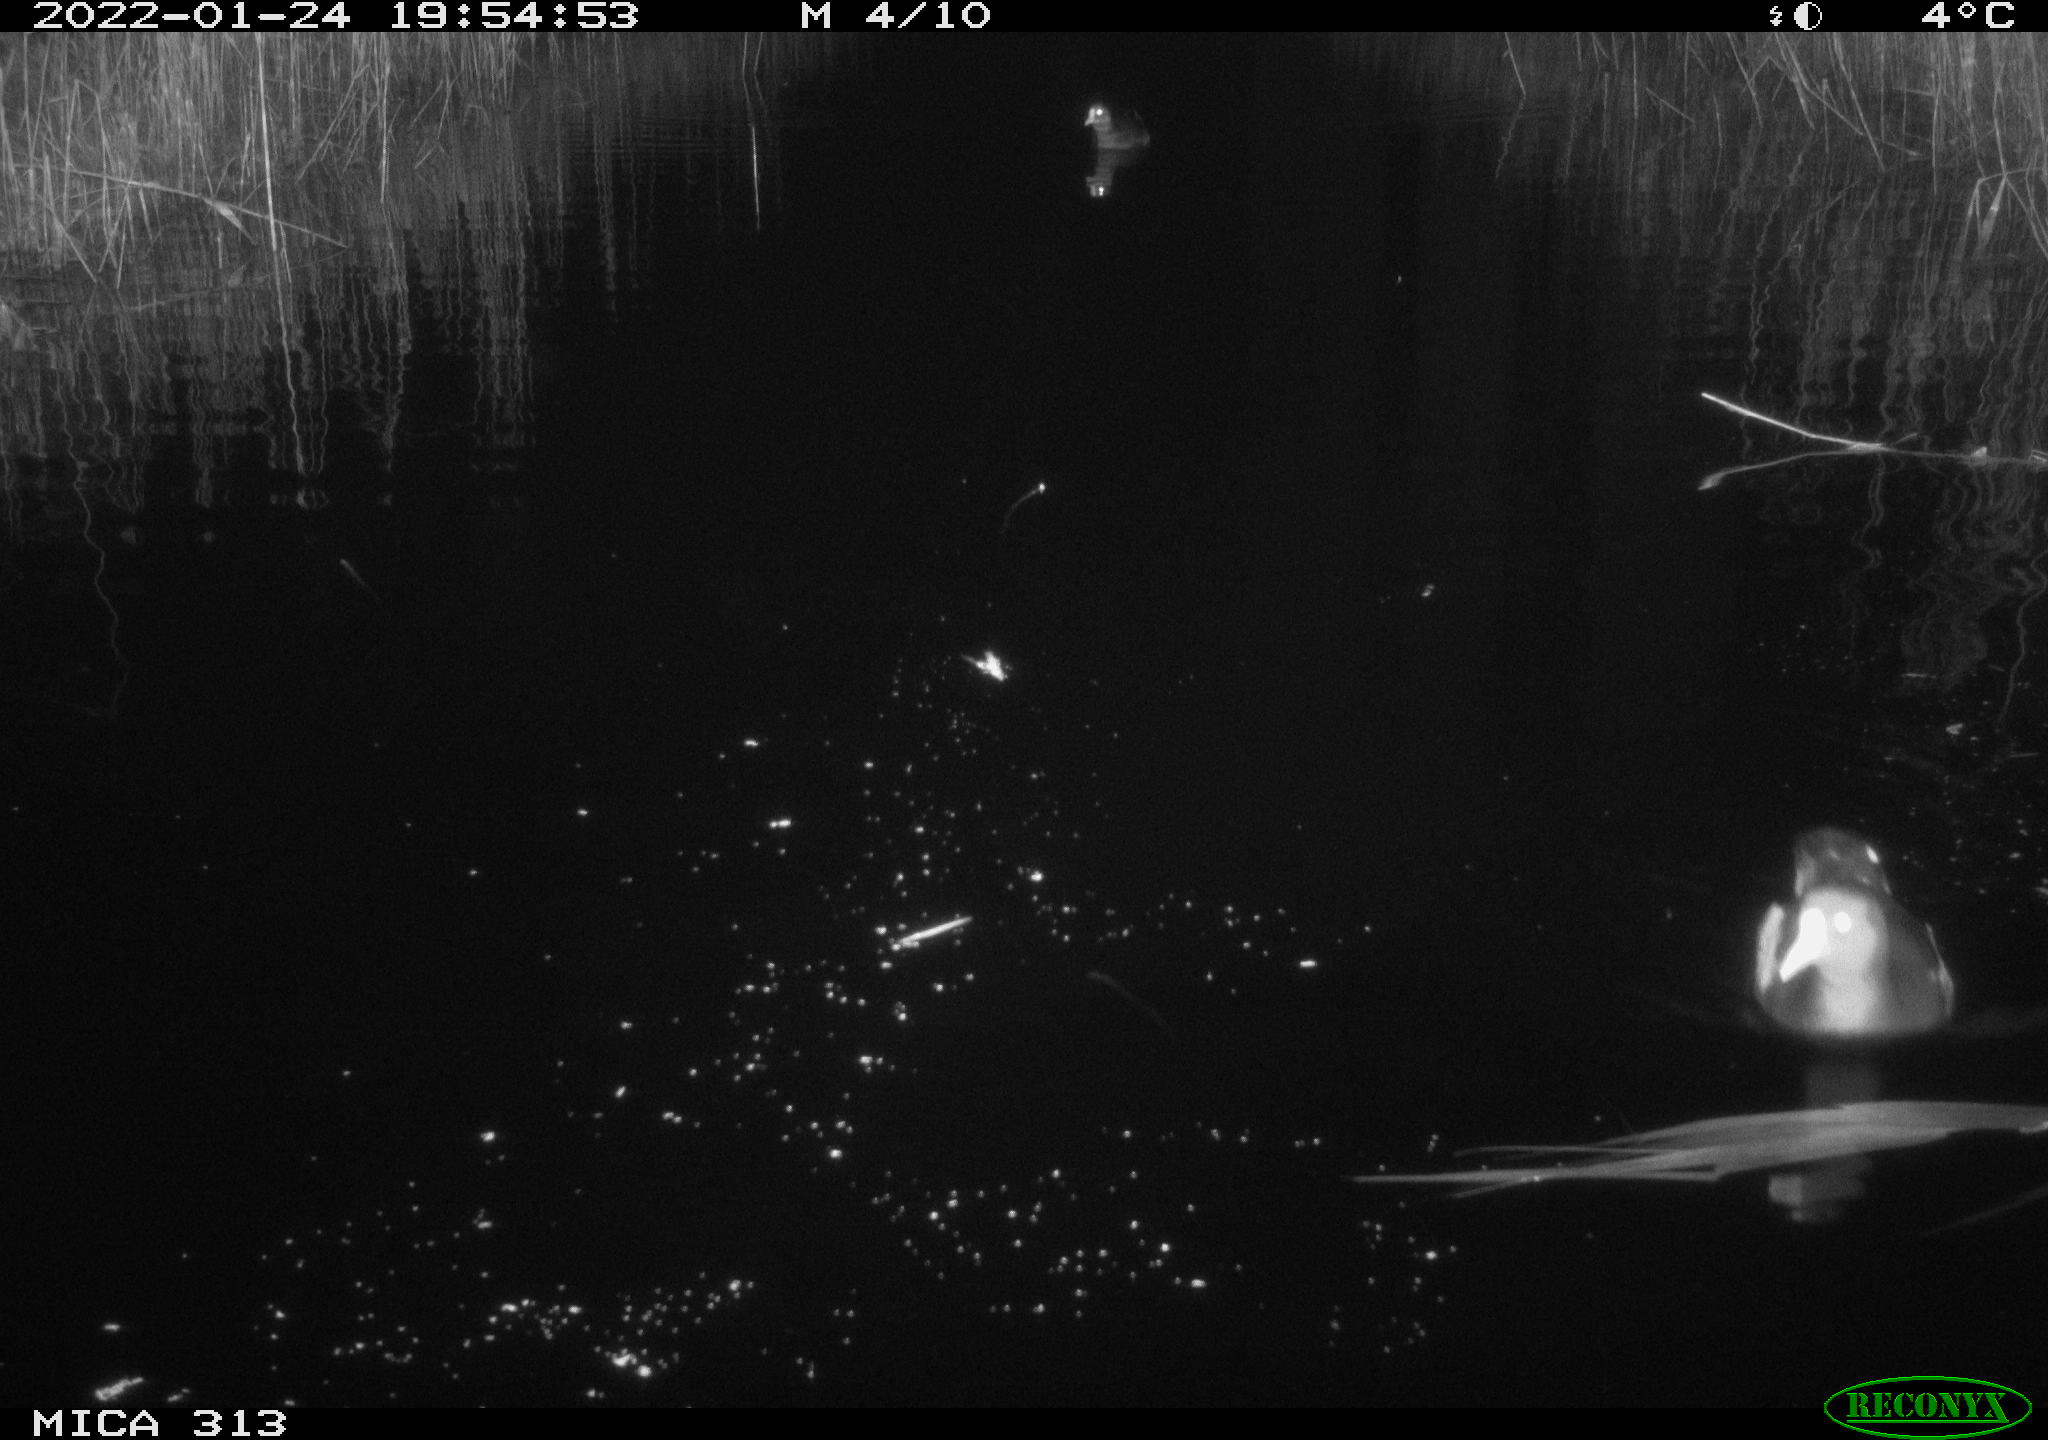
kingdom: Animalia
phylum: Chordata
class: Aves
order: Gruiformes
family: Rallidae
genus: Gallinula
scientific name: Gallinula chloropus
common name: Common moorhen
